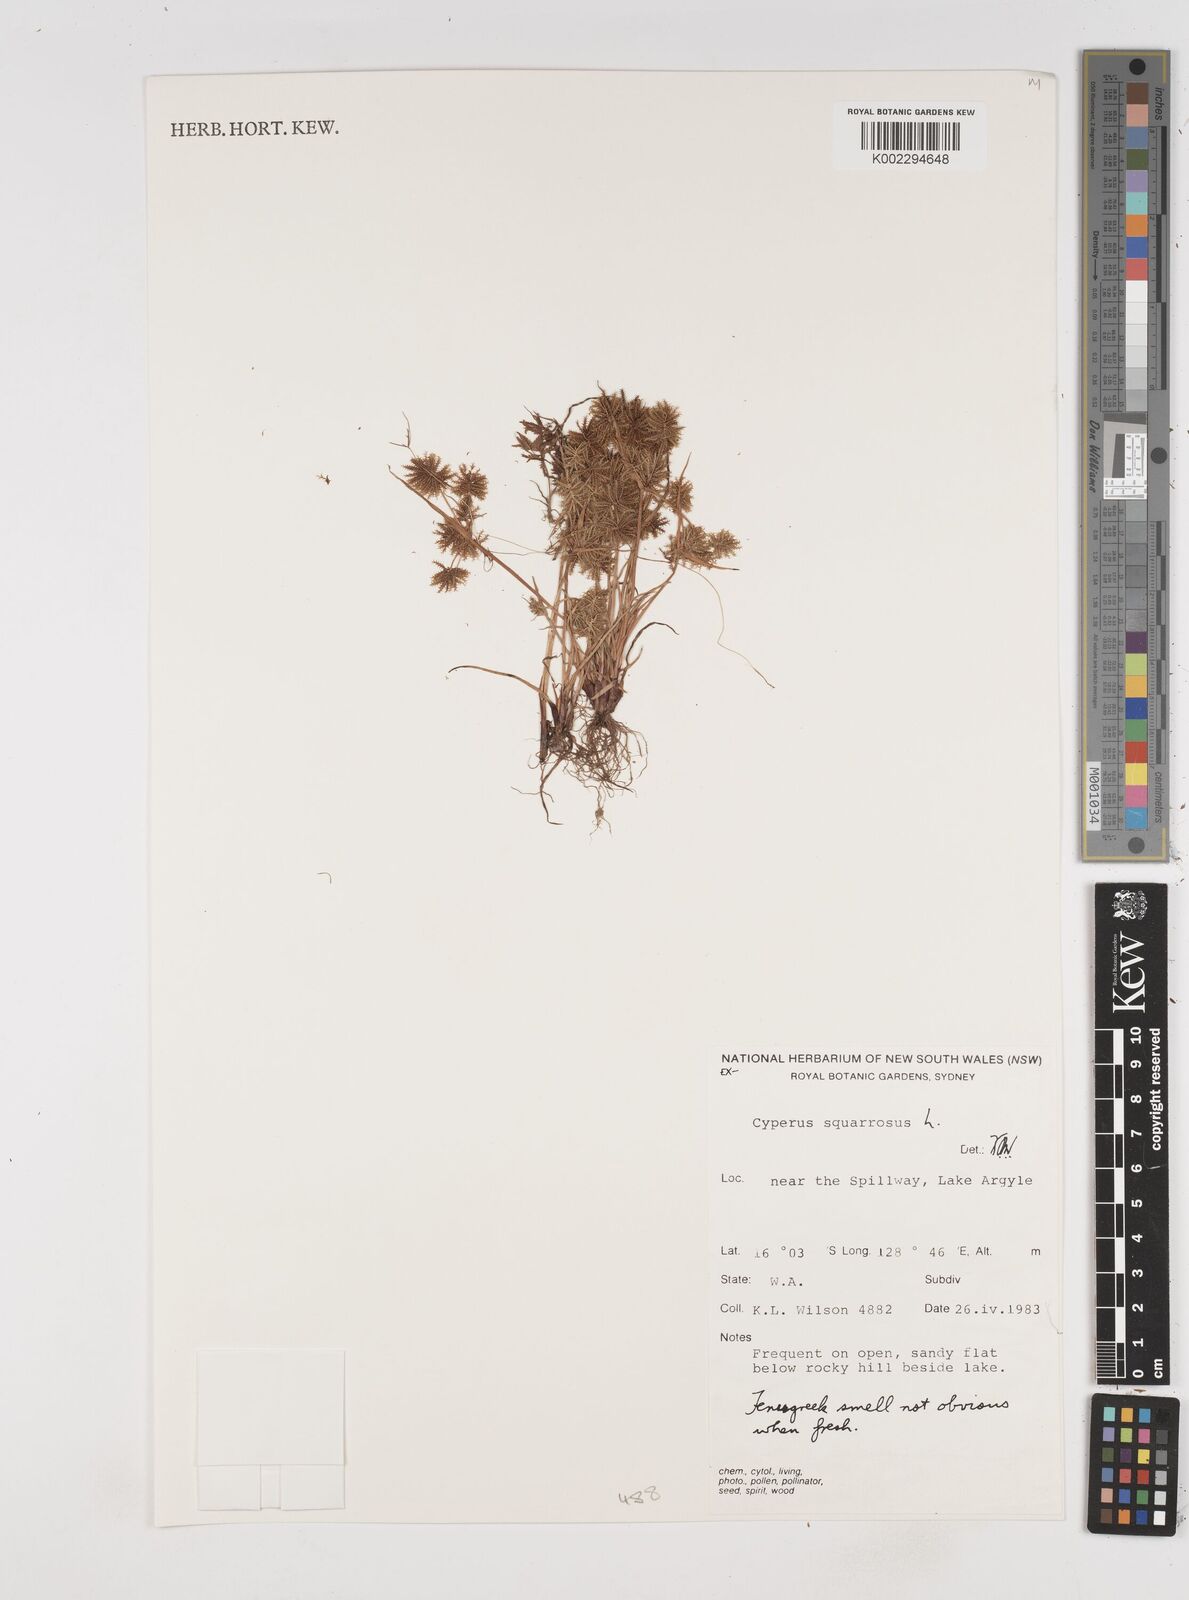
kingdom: Plantae
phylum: Tracheophyta
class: Liliopsida
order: Poales
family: Cyperaceae
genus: Cyperus
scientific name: Cyperus squarrosus
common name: Awned cyperus
